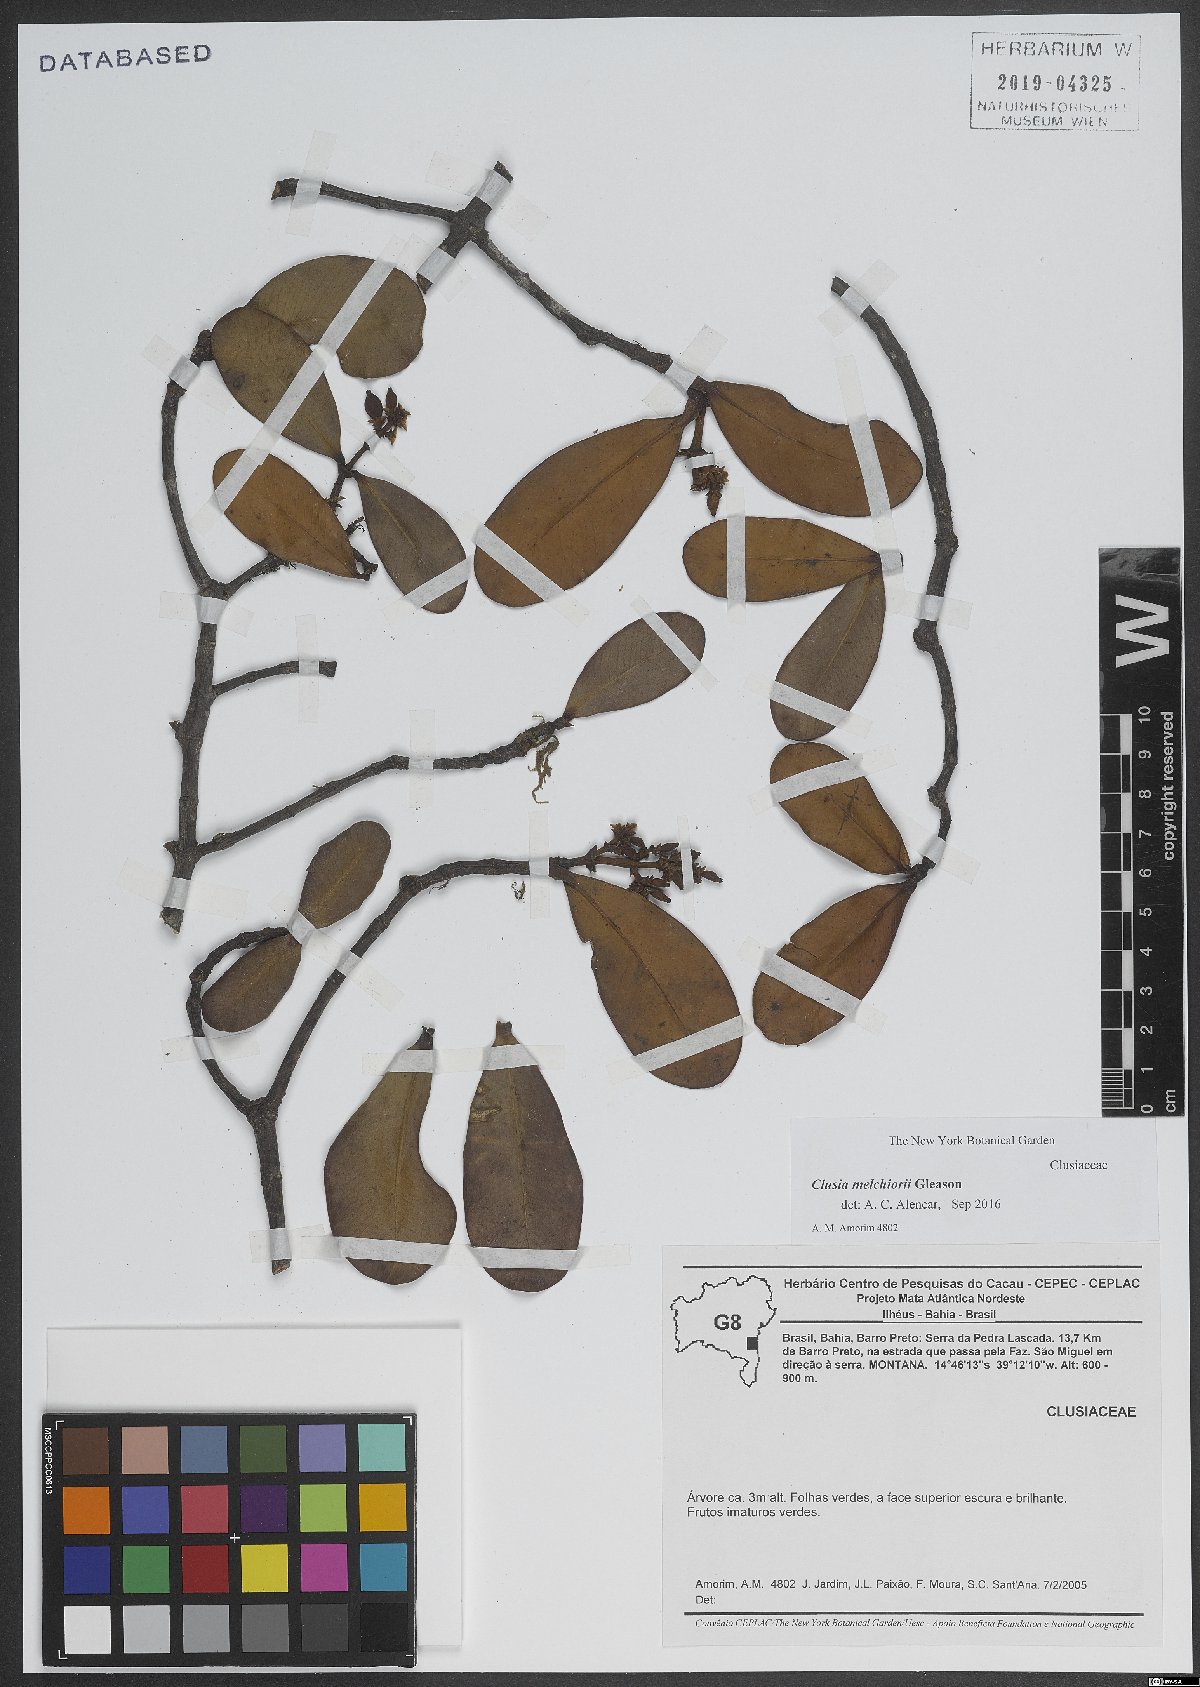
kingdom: Plantae
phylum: Tracheophyta
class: Magnoliopsida
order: Malpighiales
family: Clusiaceae
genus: Clusia
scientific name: Clusia melchiorii
